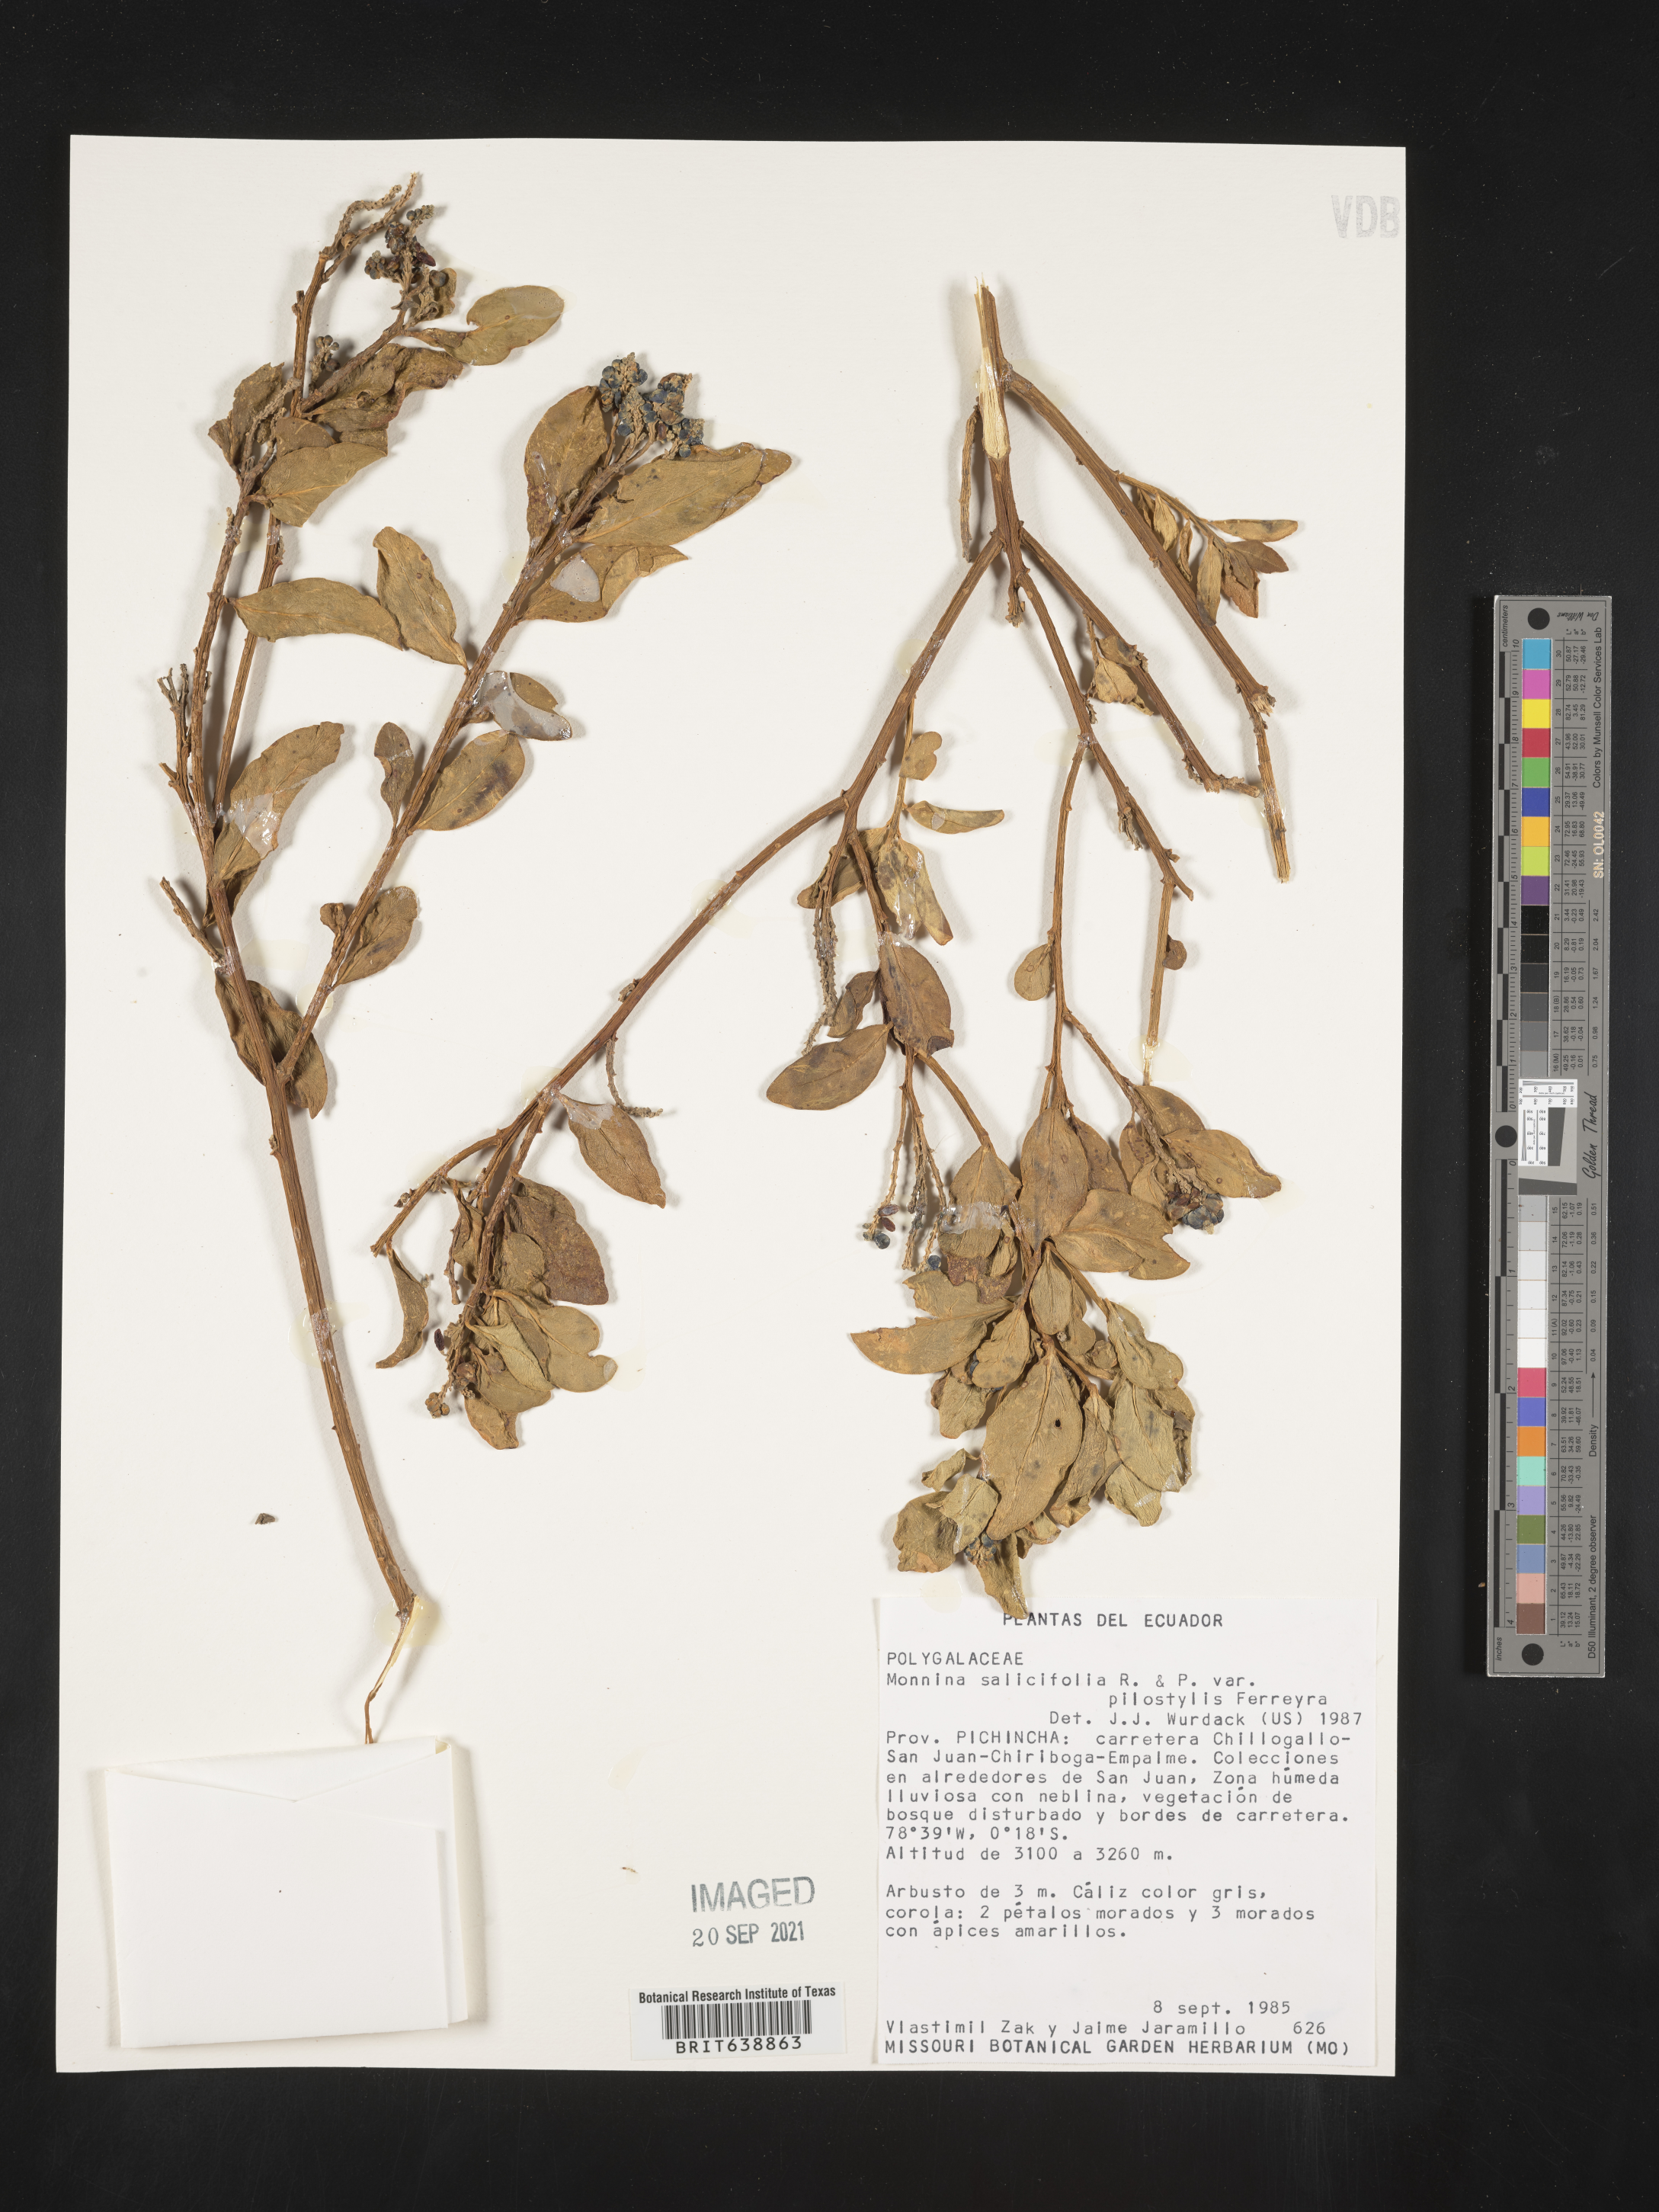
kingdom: Plantae
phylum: Tracheophyta
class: Magnoliopsida
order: Fabales
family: Polygalaceae
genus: Monnina
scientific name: Monnina
